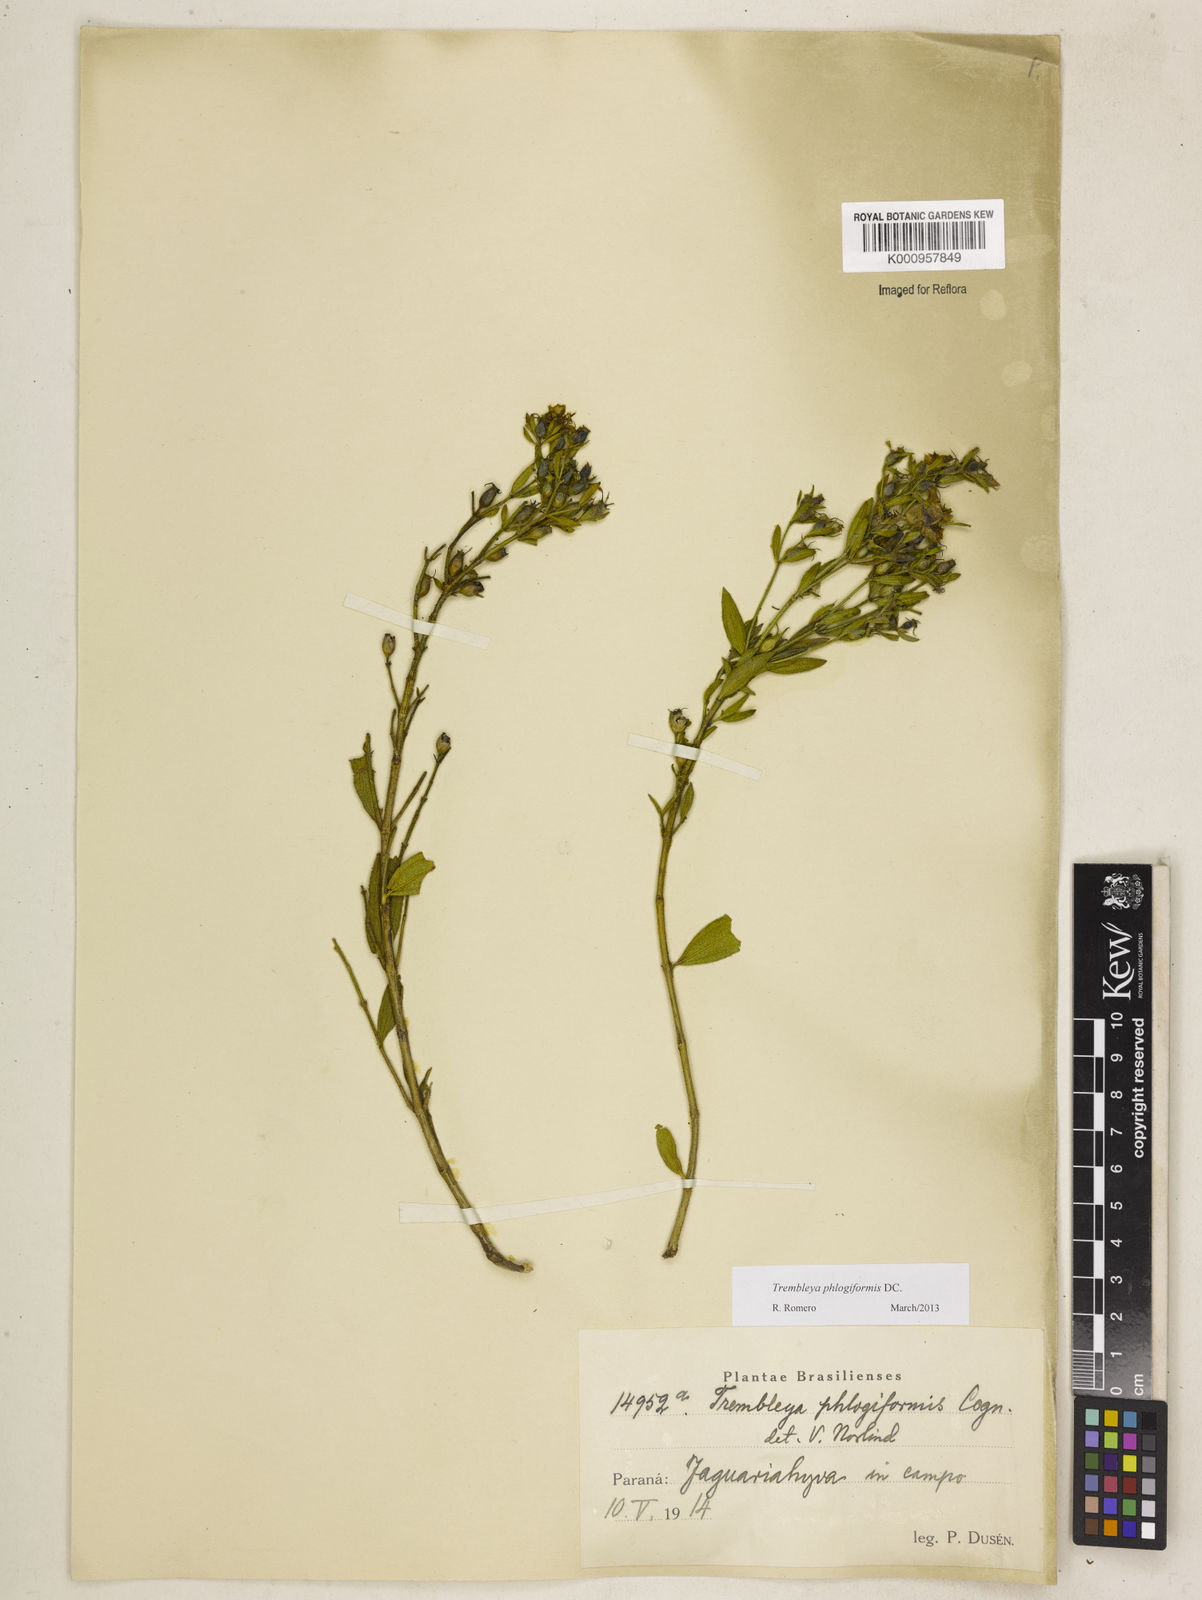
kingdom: Plantae
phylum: Tracheophyta
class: Magnoliopsida
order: Myrtales
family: Melastomataceae
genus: Microlicia
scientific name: Microlicia phlogiformis
